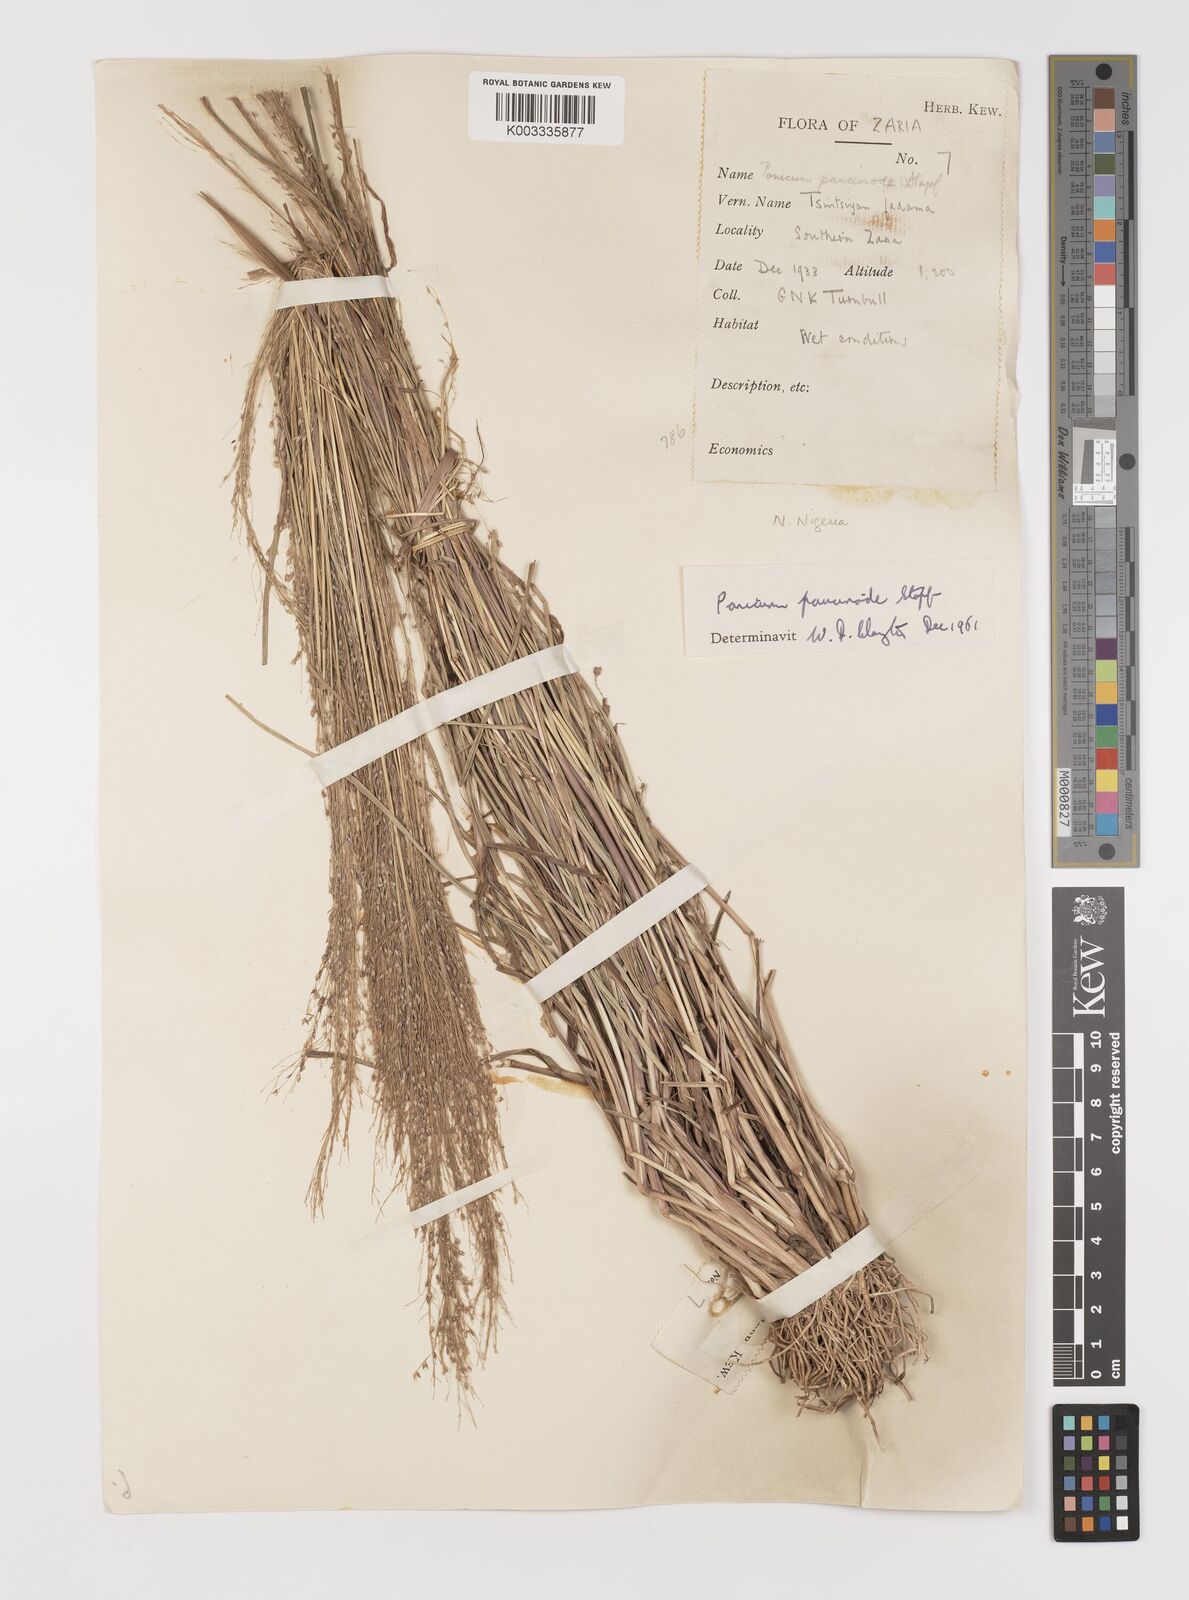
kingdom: Plantae
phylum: Tracheophyta
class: Liliopsida
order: Poales
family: Poaceae
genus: Panicum
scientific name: Panicum paucinode
